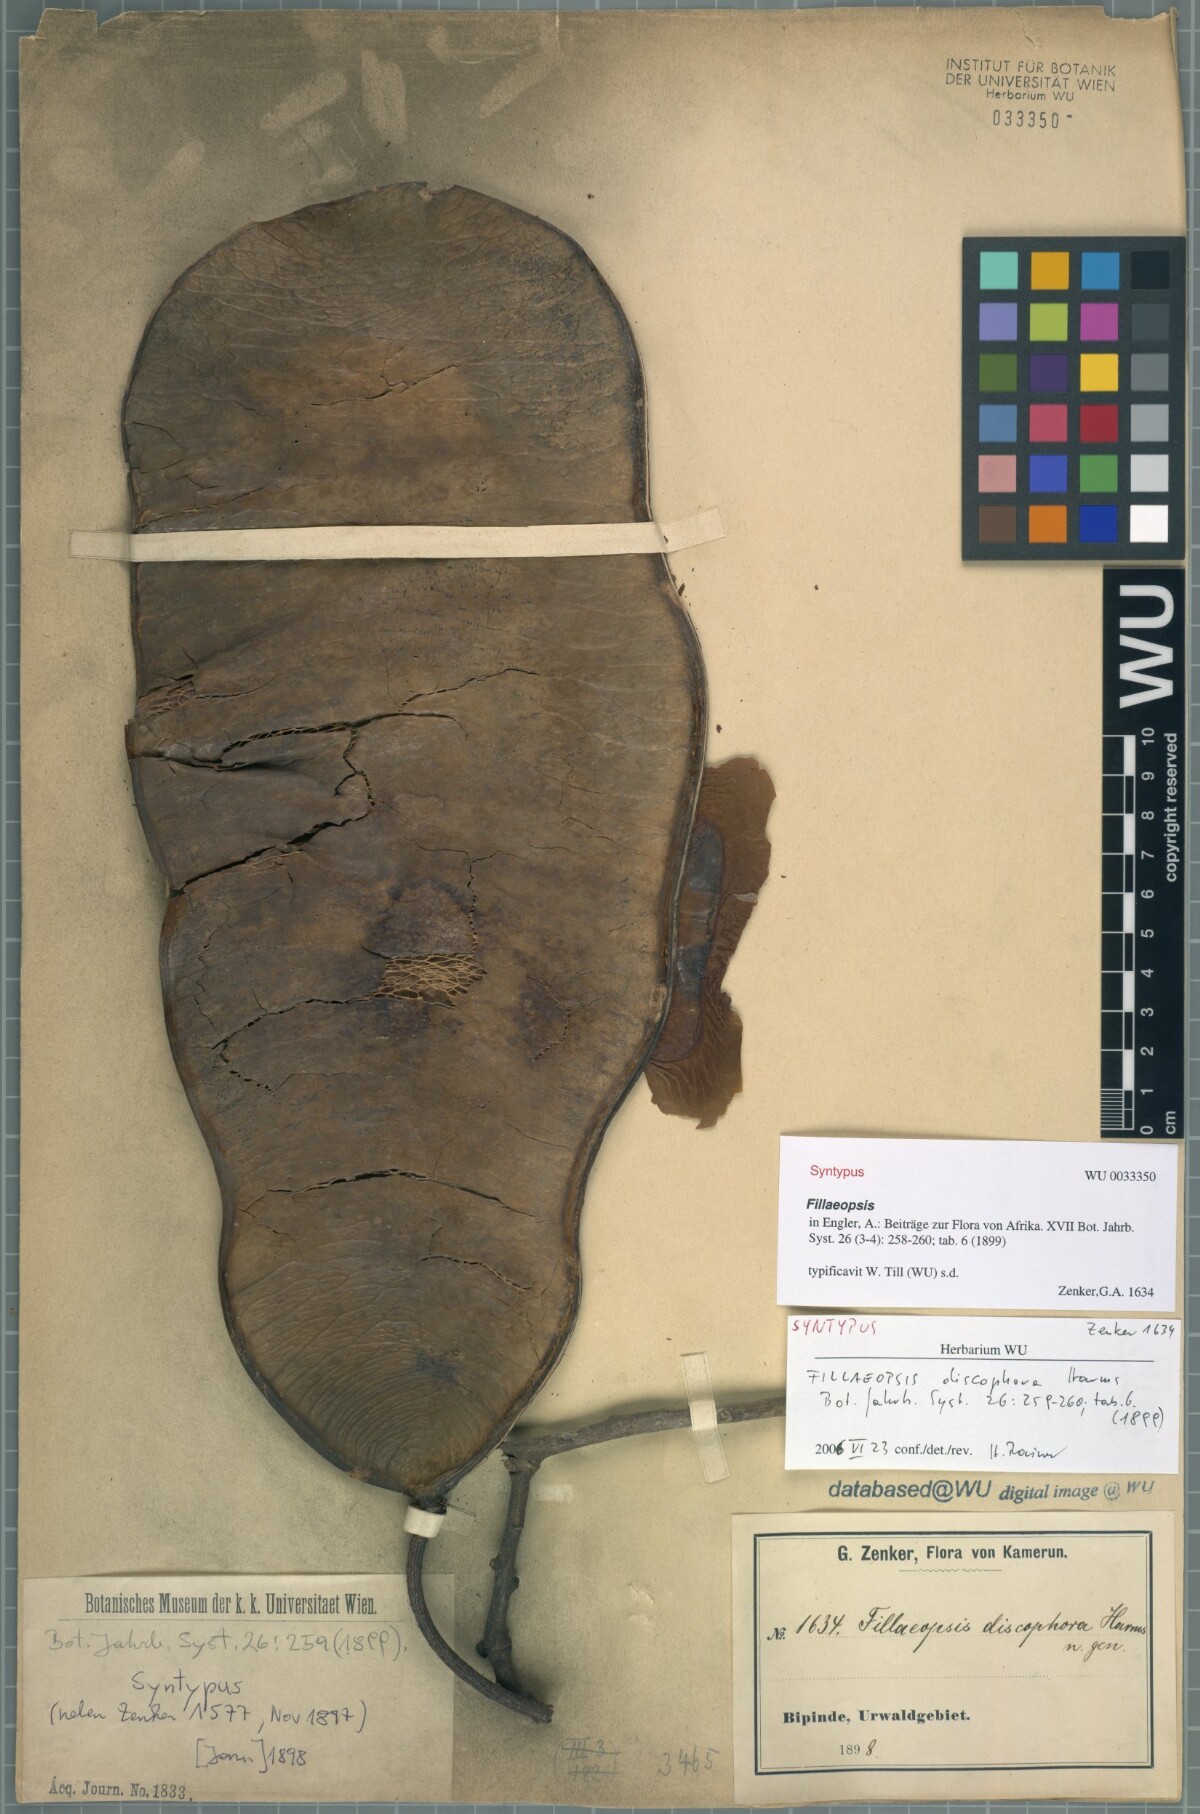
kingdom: Plantae
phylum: Tracheophyta
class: Magnoliopsida
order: Fabales
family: Fabaceae
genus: Fillaeopsis
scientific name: Fillaeopsis discophora
